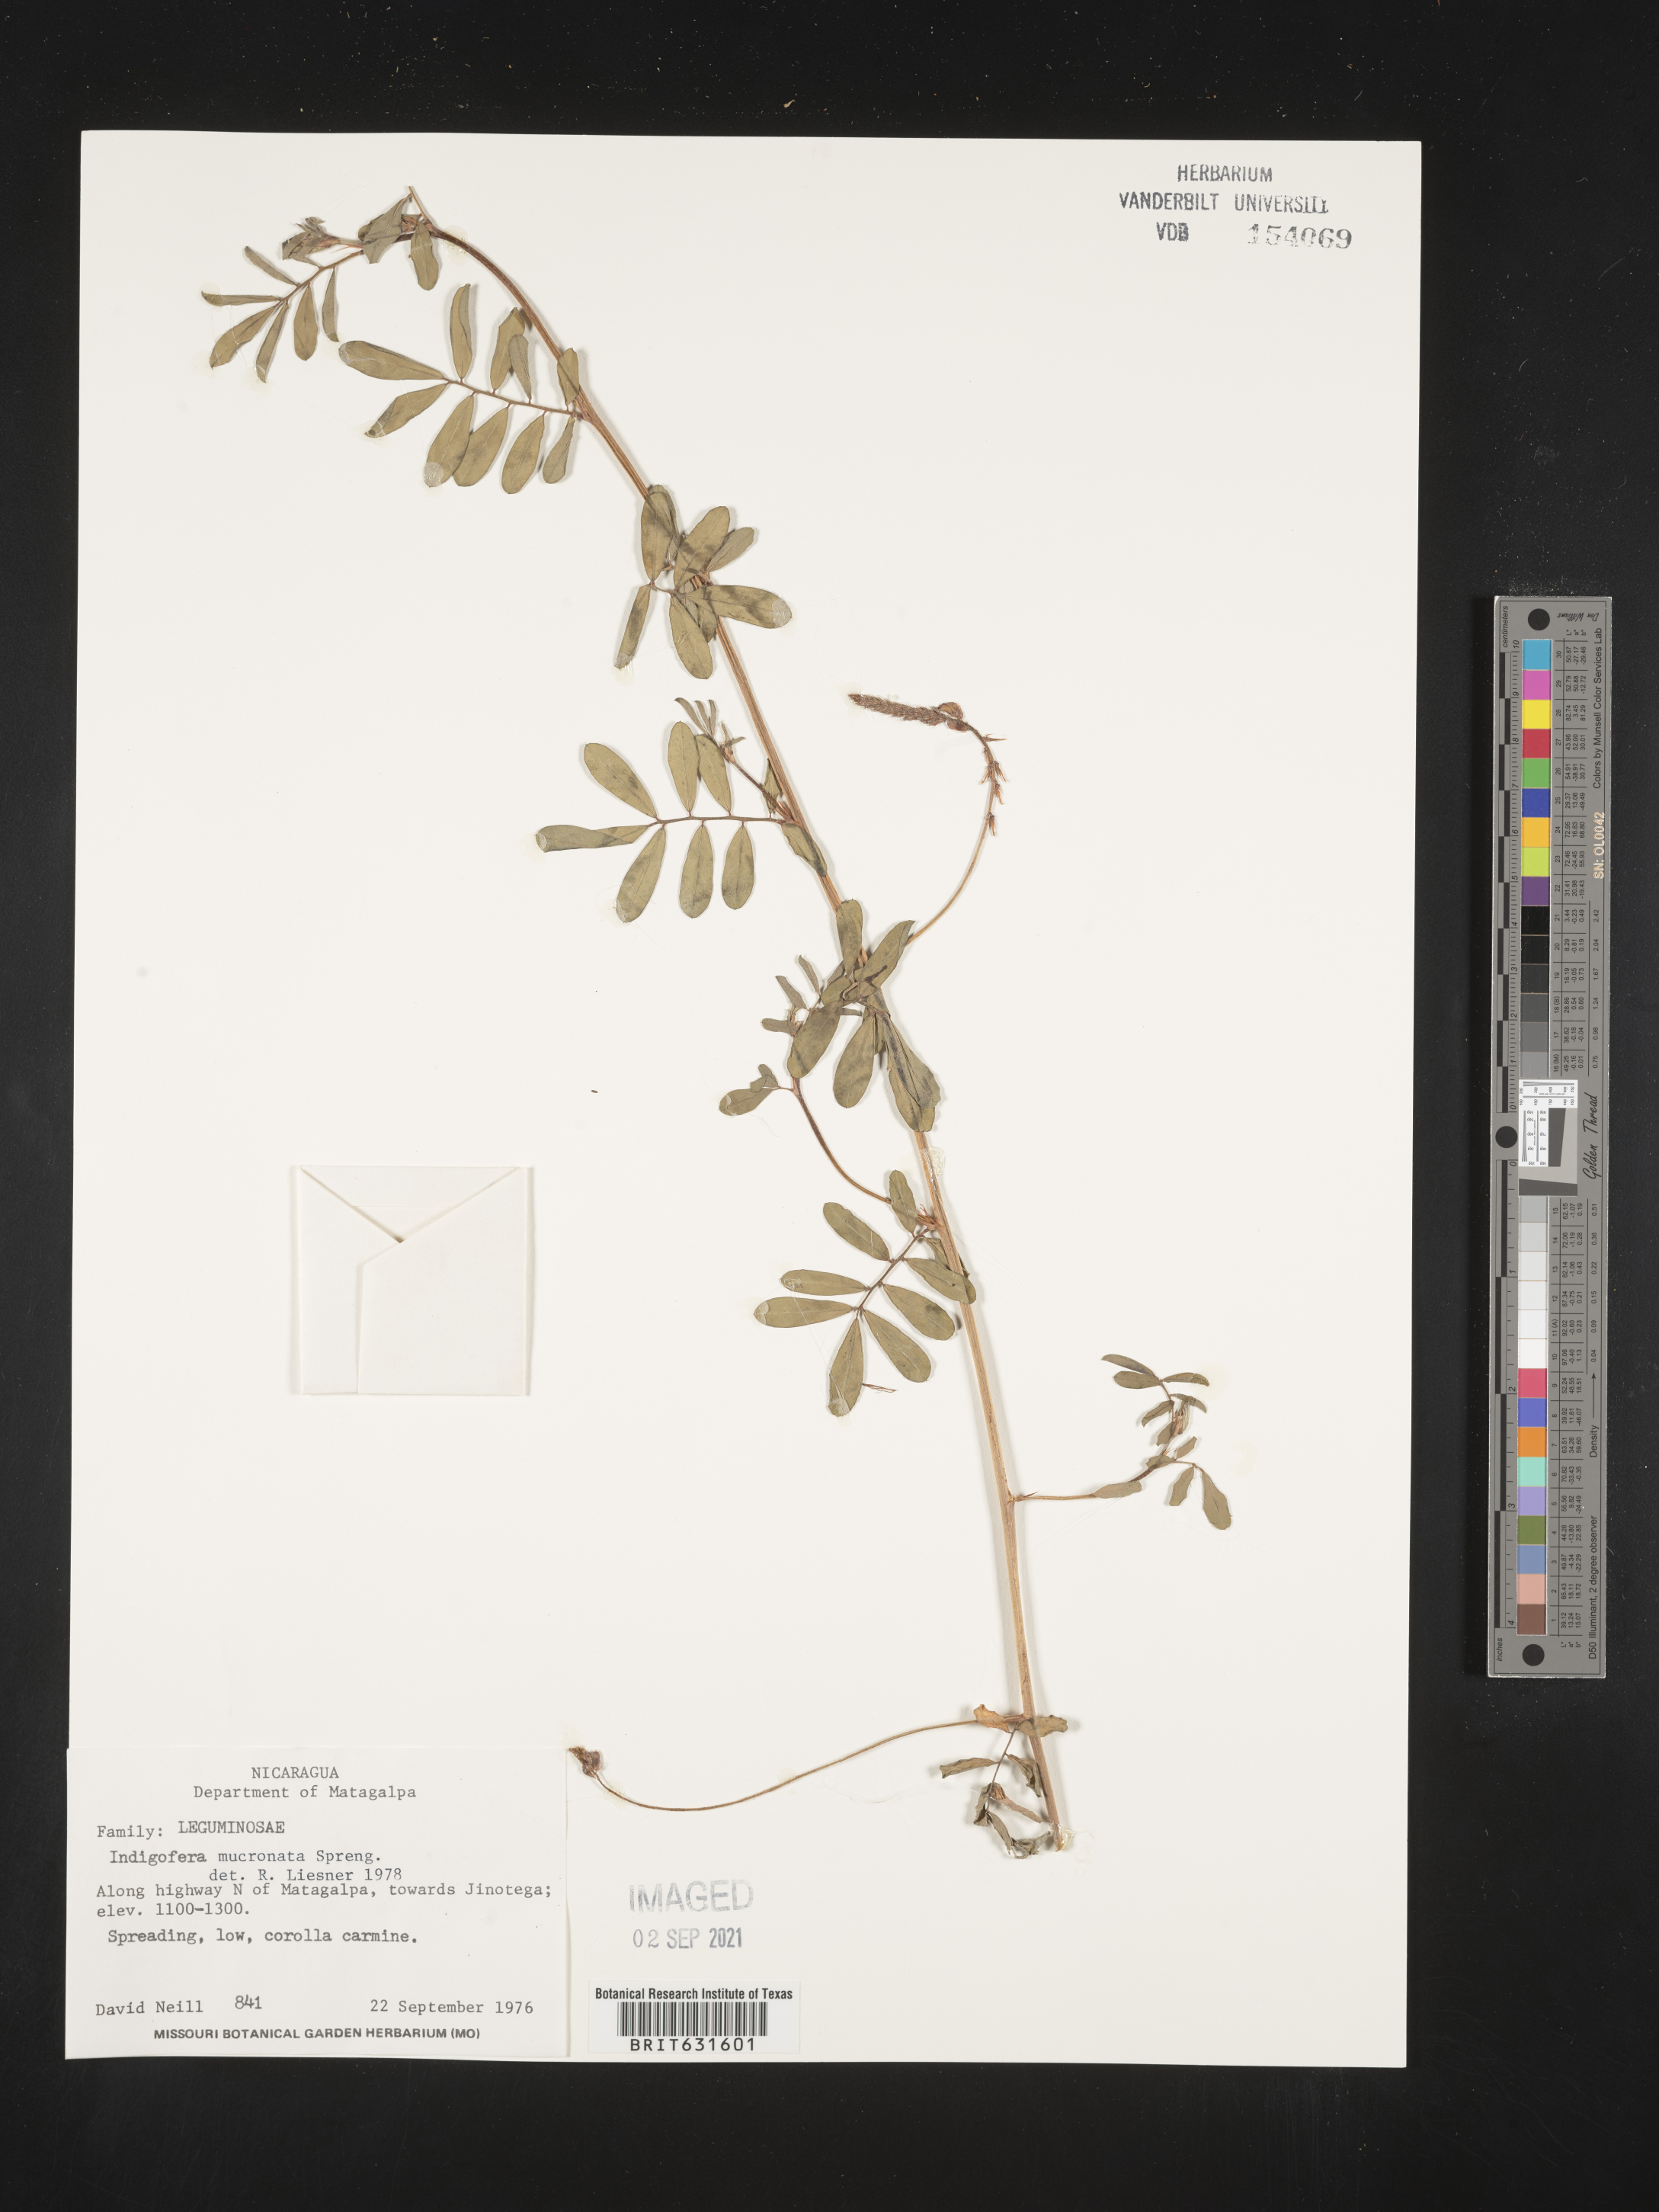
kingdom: Plantae
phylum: Tracheophyta
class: Magnoliopsida
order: Fabales
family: Fabaceae
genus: Indigofera
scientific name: Indigofera
